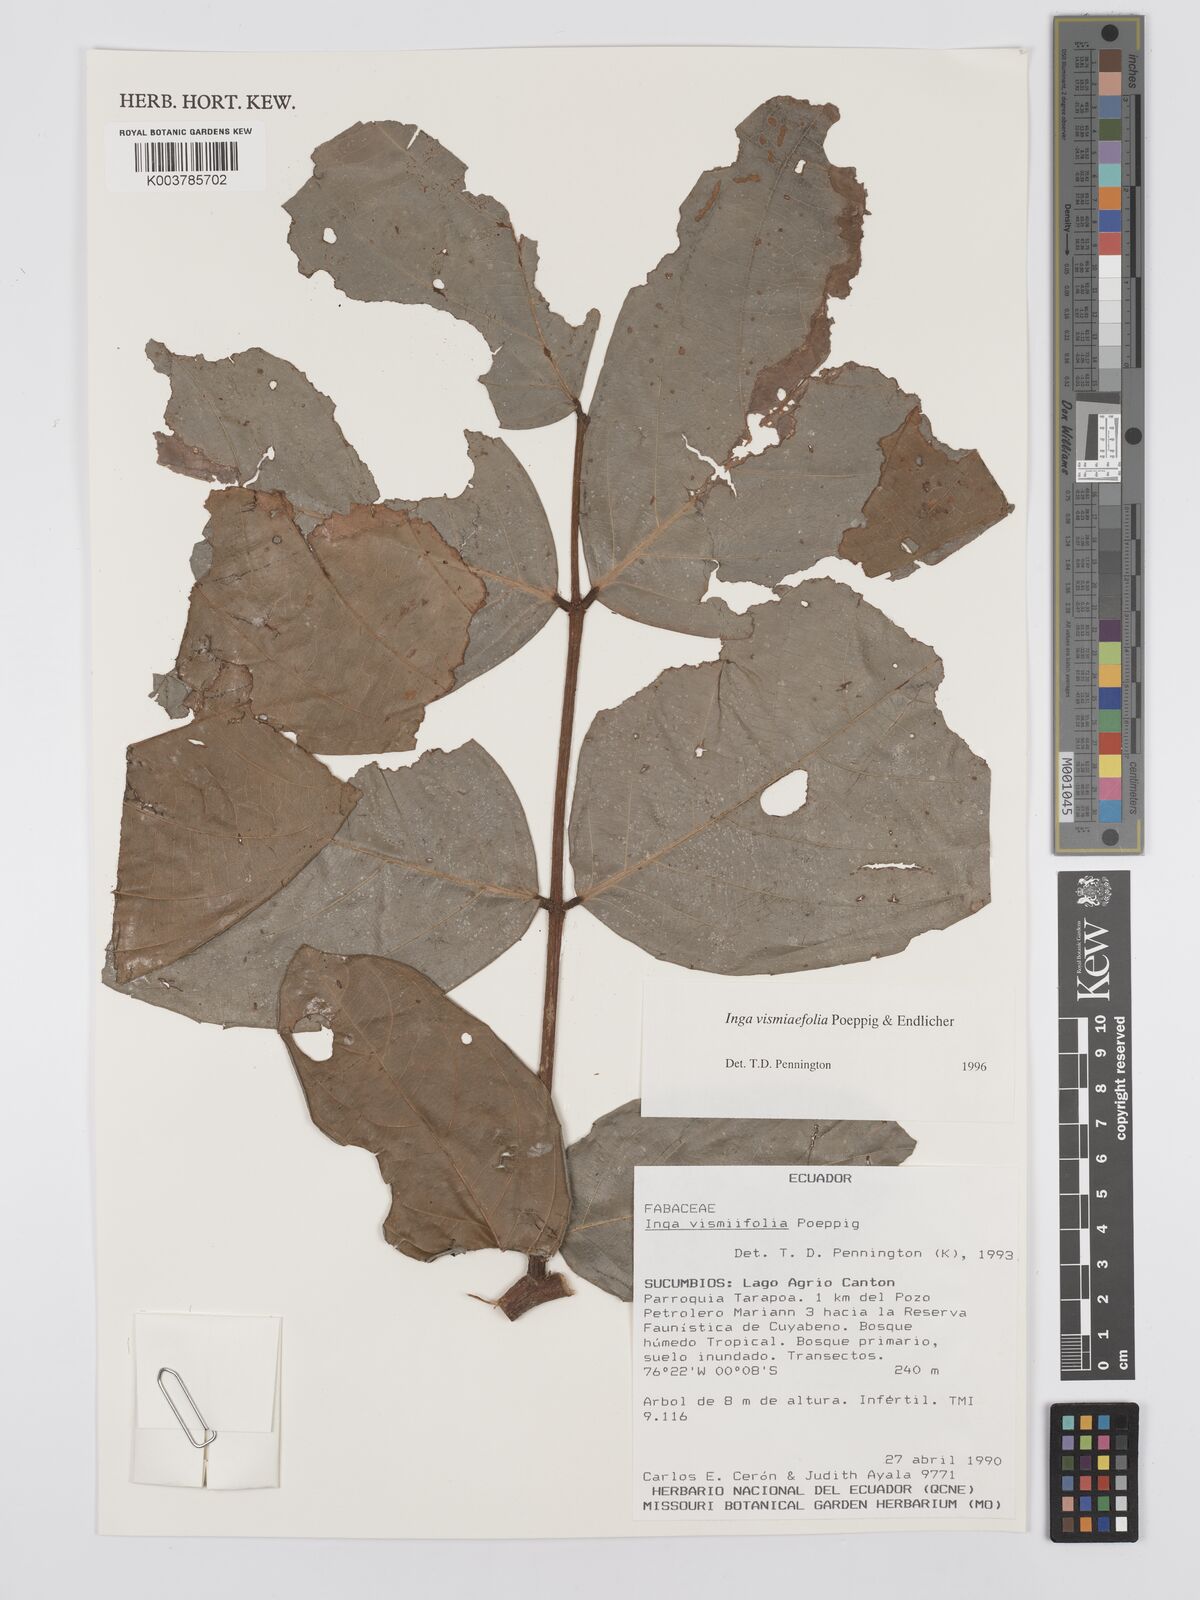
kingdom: Plantae
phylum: Tracheophyta
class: Magnoliopsida
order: Fabales
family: Fabaceae
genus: Inga
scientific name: Inga vismiifolia
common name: Howler monkey inga
